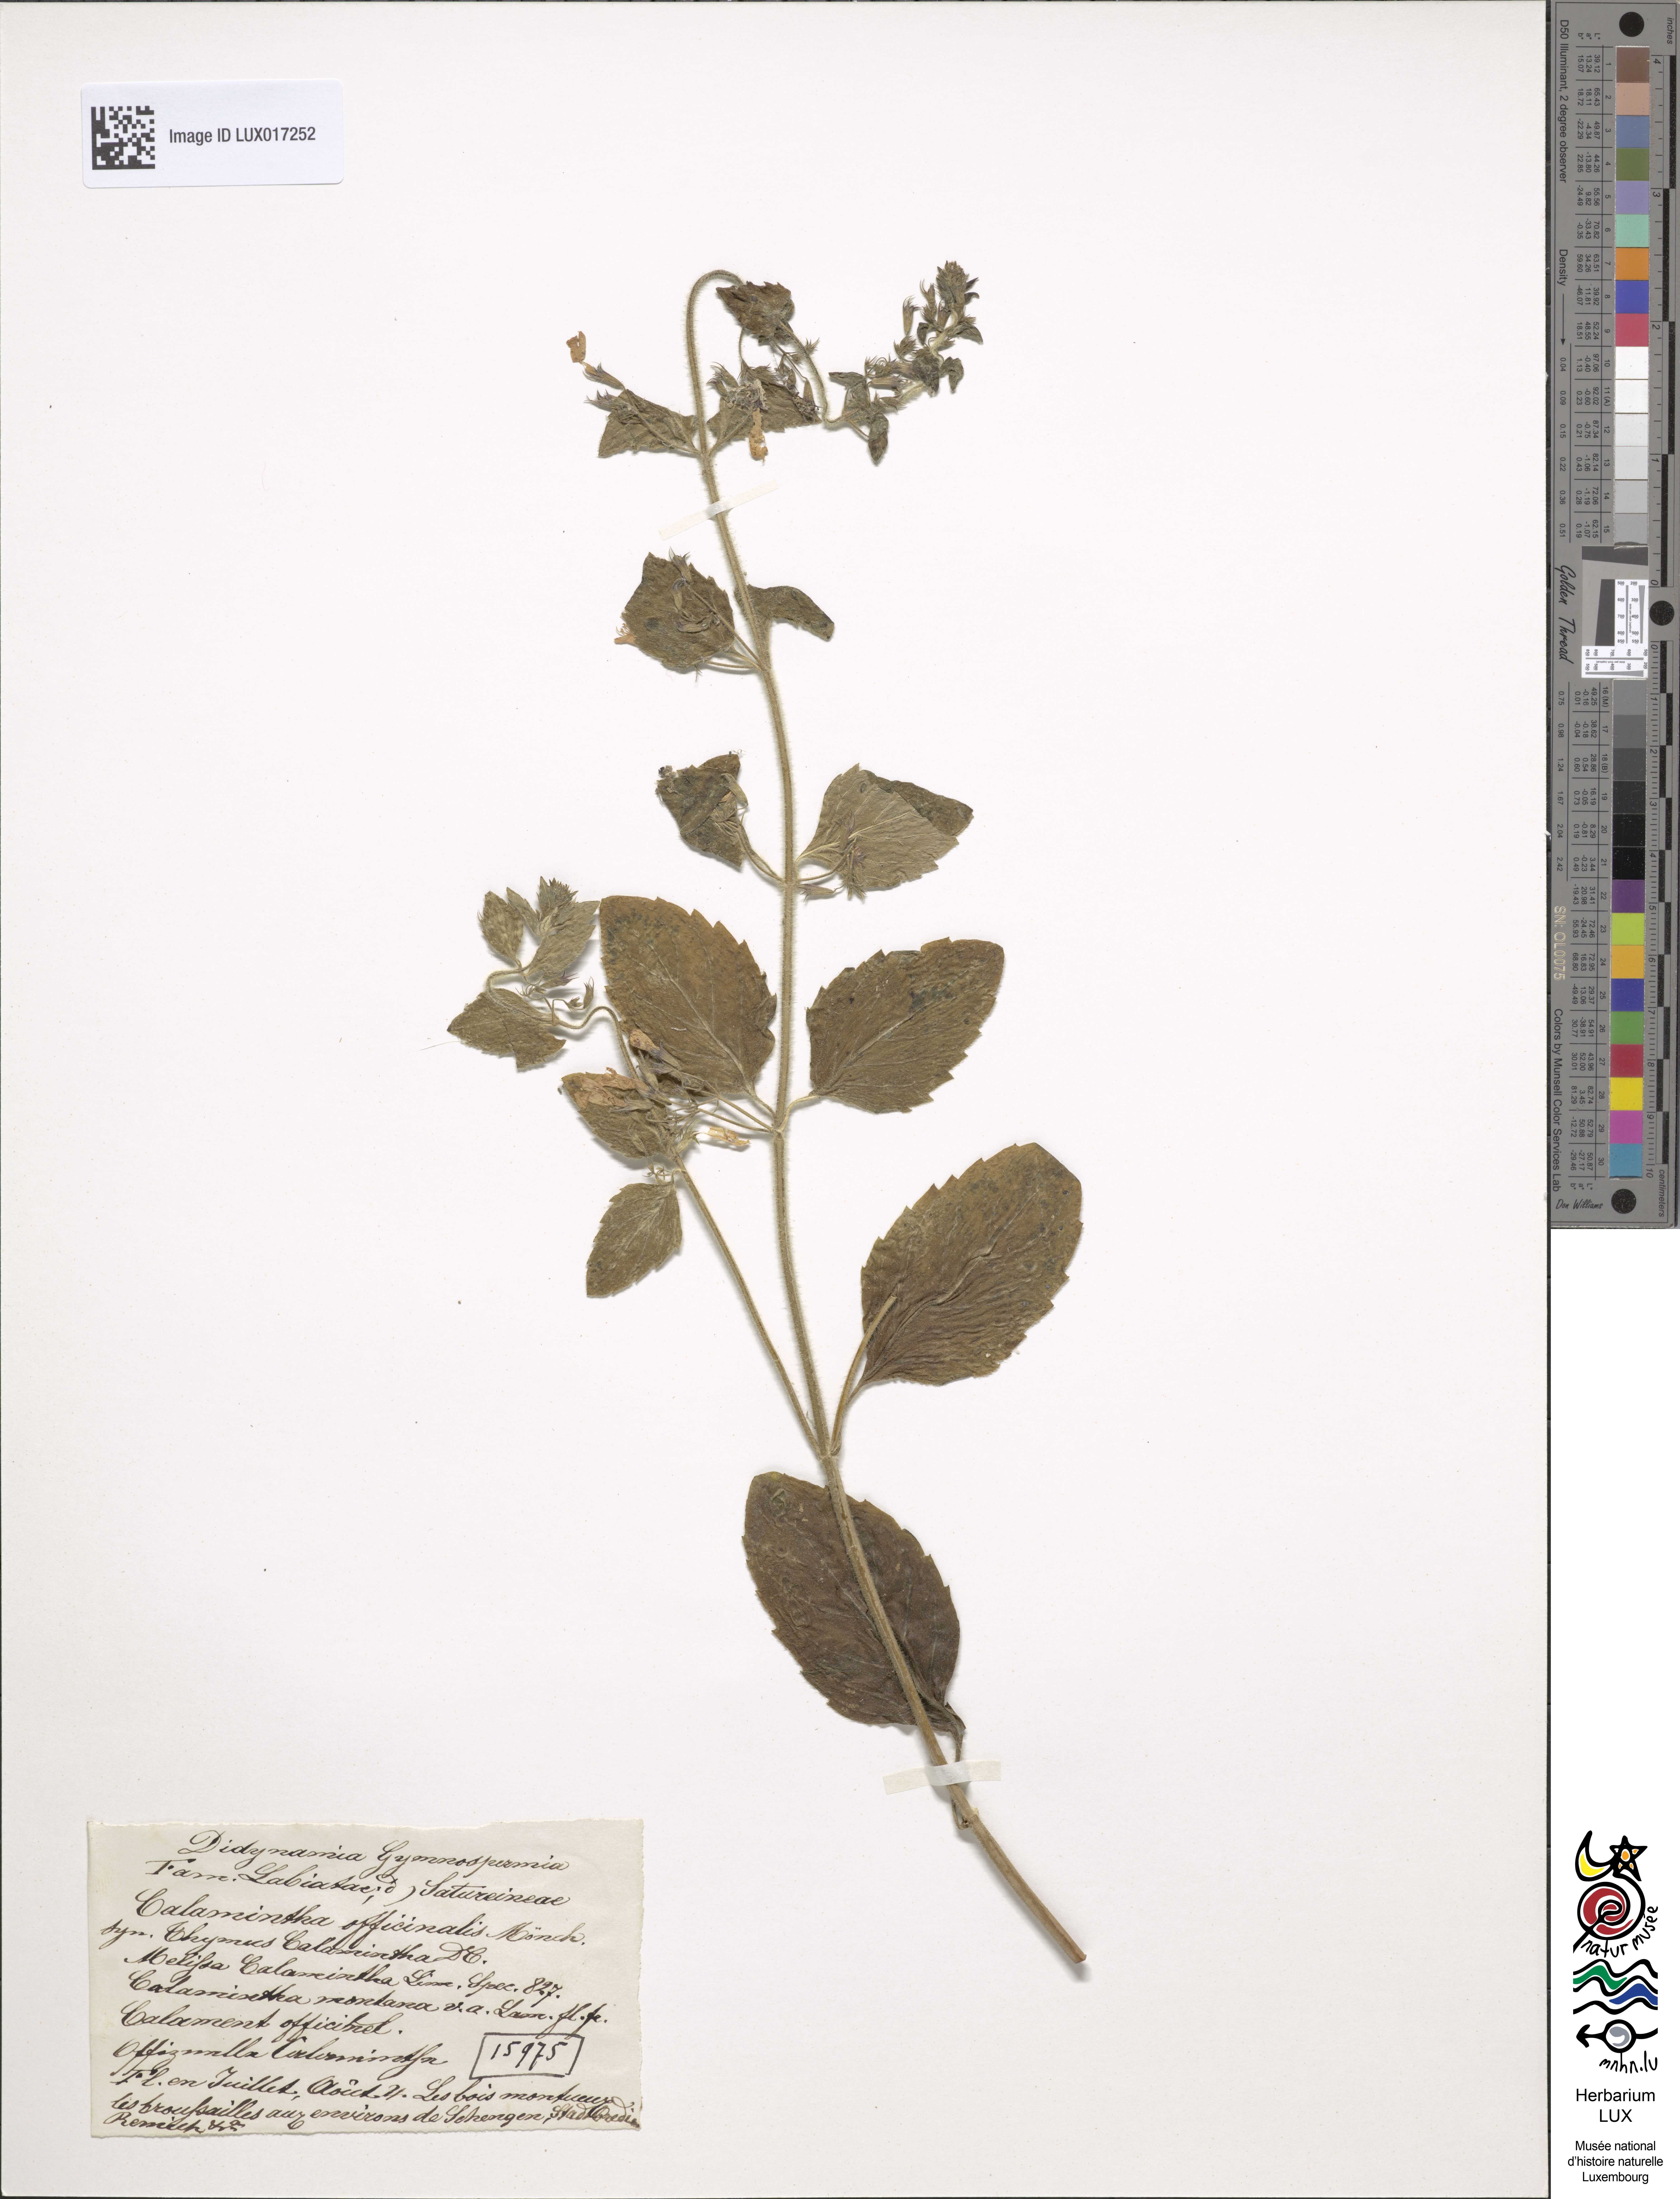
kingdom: Plantae
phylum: Tracheophyta
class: Magnoliopsida
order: Lamiales
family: Lamiaceae
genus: Clinopodium
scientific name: Clinopodium nepeta
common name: Lesser calamint
